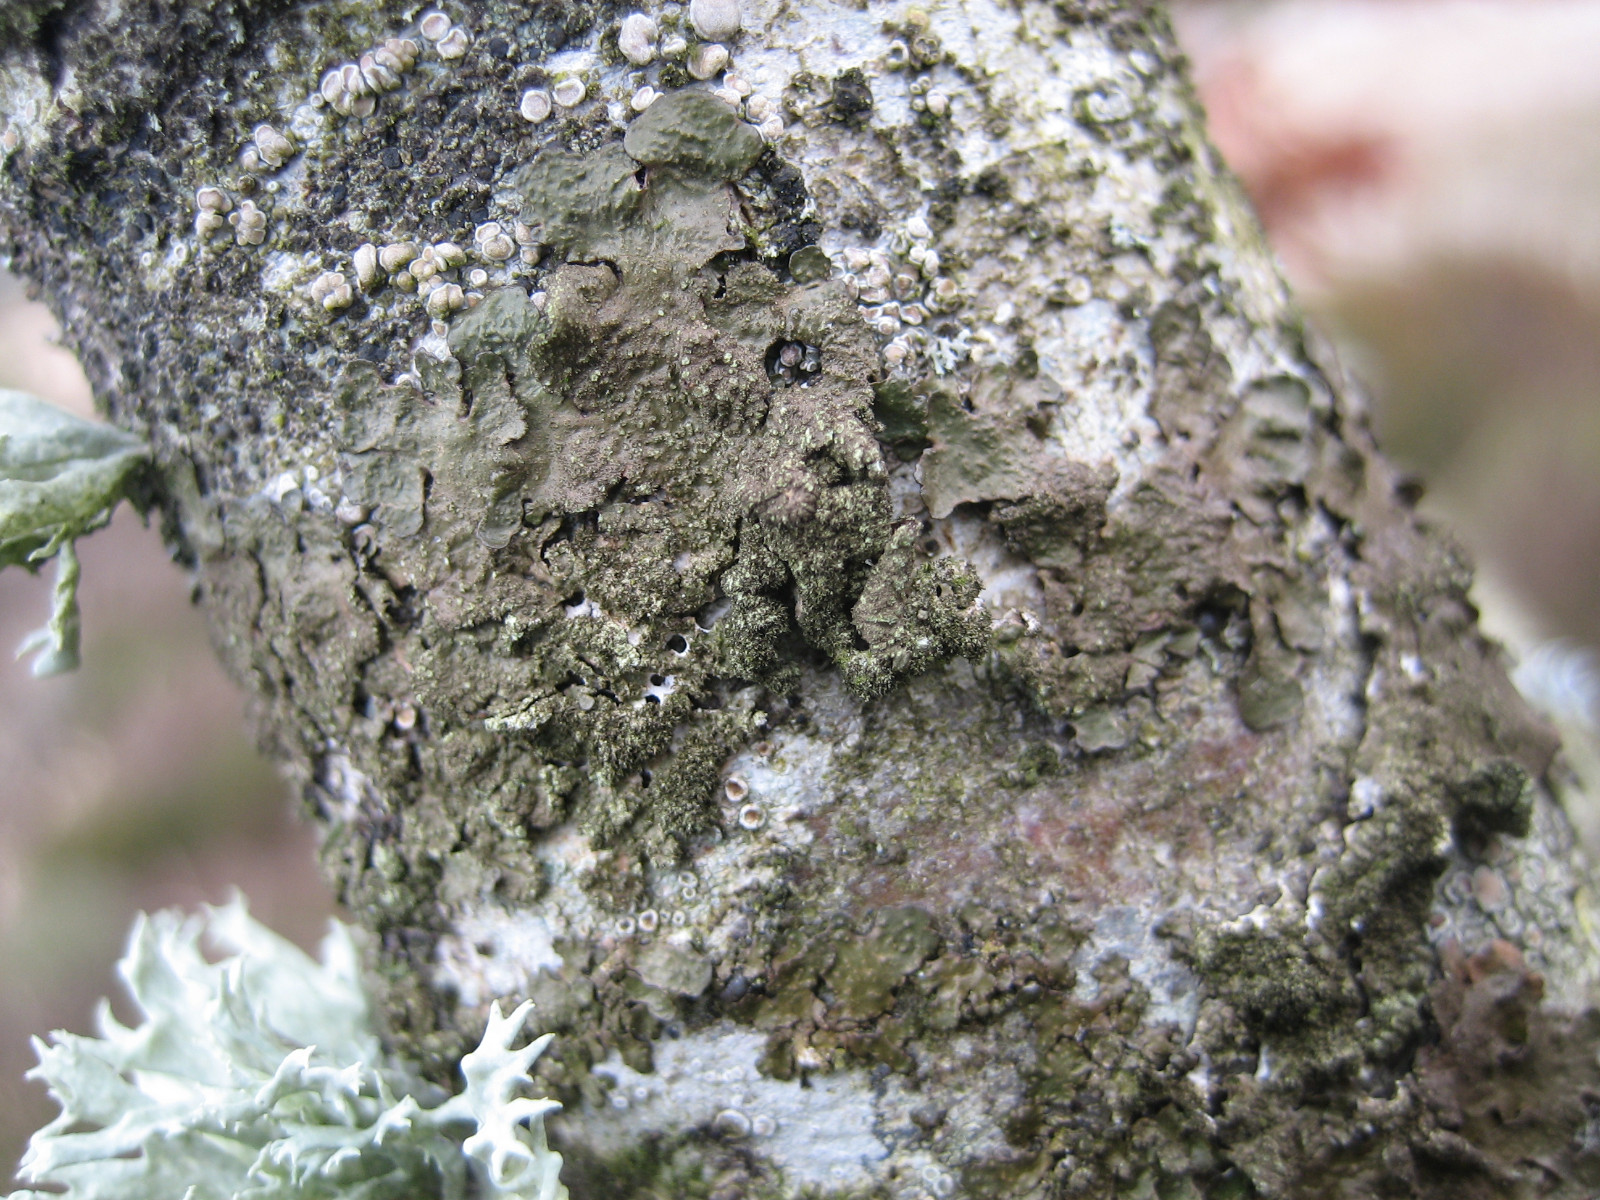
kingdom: Fungi
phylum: Ascomycota
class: Lecanoromycetes
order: Lecanorales
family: Parmeliaceae
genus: Melanelixia
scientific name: Melanelixia subaurifera
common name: guldpudret skållav
